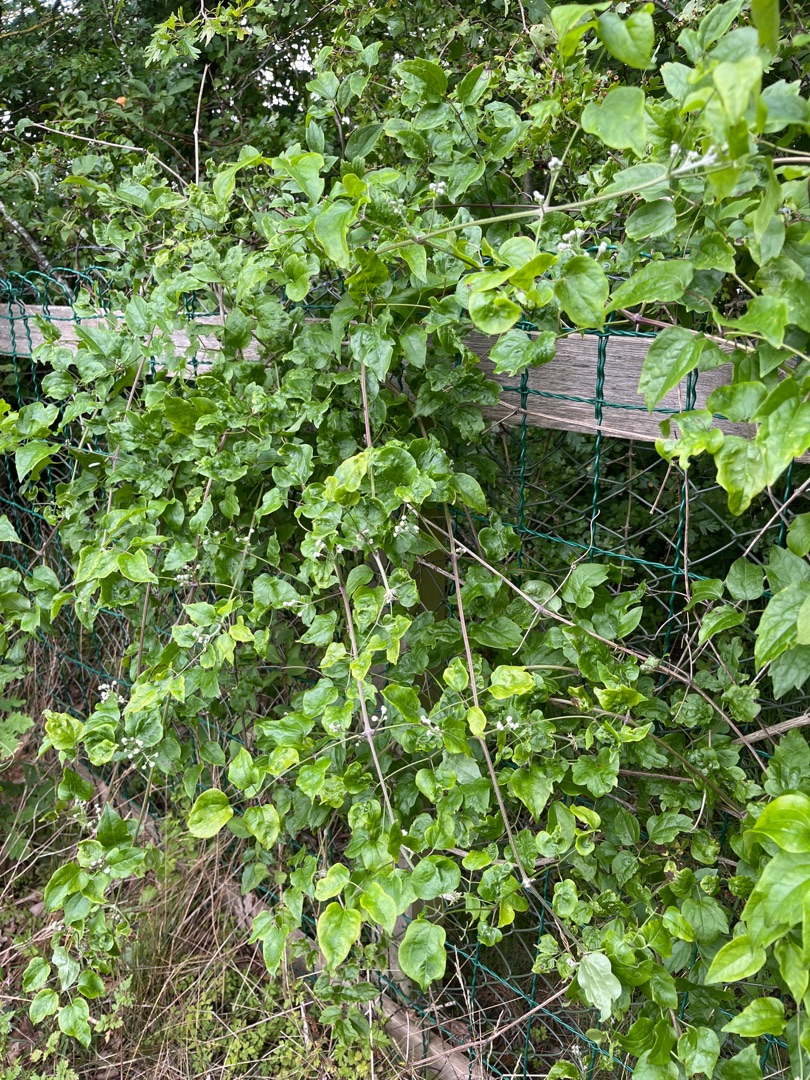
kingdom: Plantae
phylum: Tracheophyta
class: Magnoliopsida
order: Ranunculales
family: Ranunculaceae
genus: Clematis
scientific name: Clematis vitalba
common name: Skovranke
